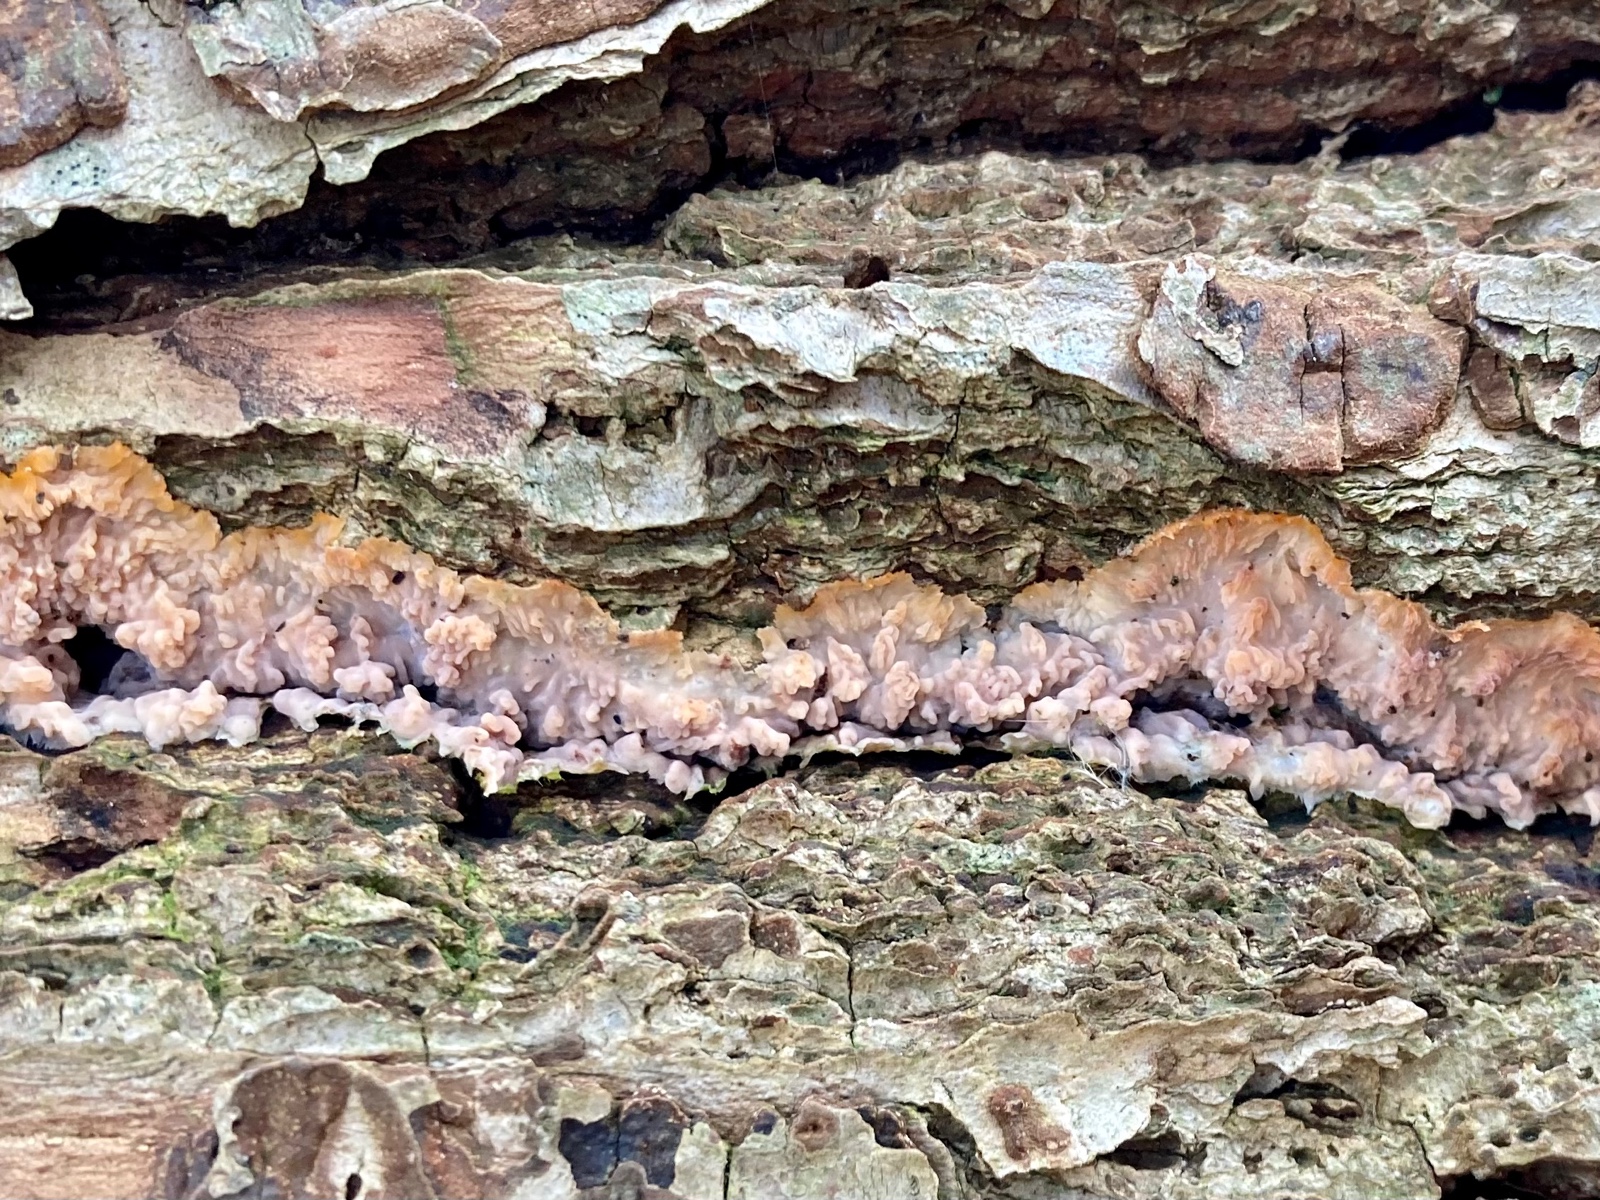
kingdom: Fungi
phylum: Basidiomycota
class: Agaricomycetes
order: Polyporales
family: Meruliaceae
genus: Phlebia
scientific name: Phlebia radiata
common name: stråle-åresvamp
